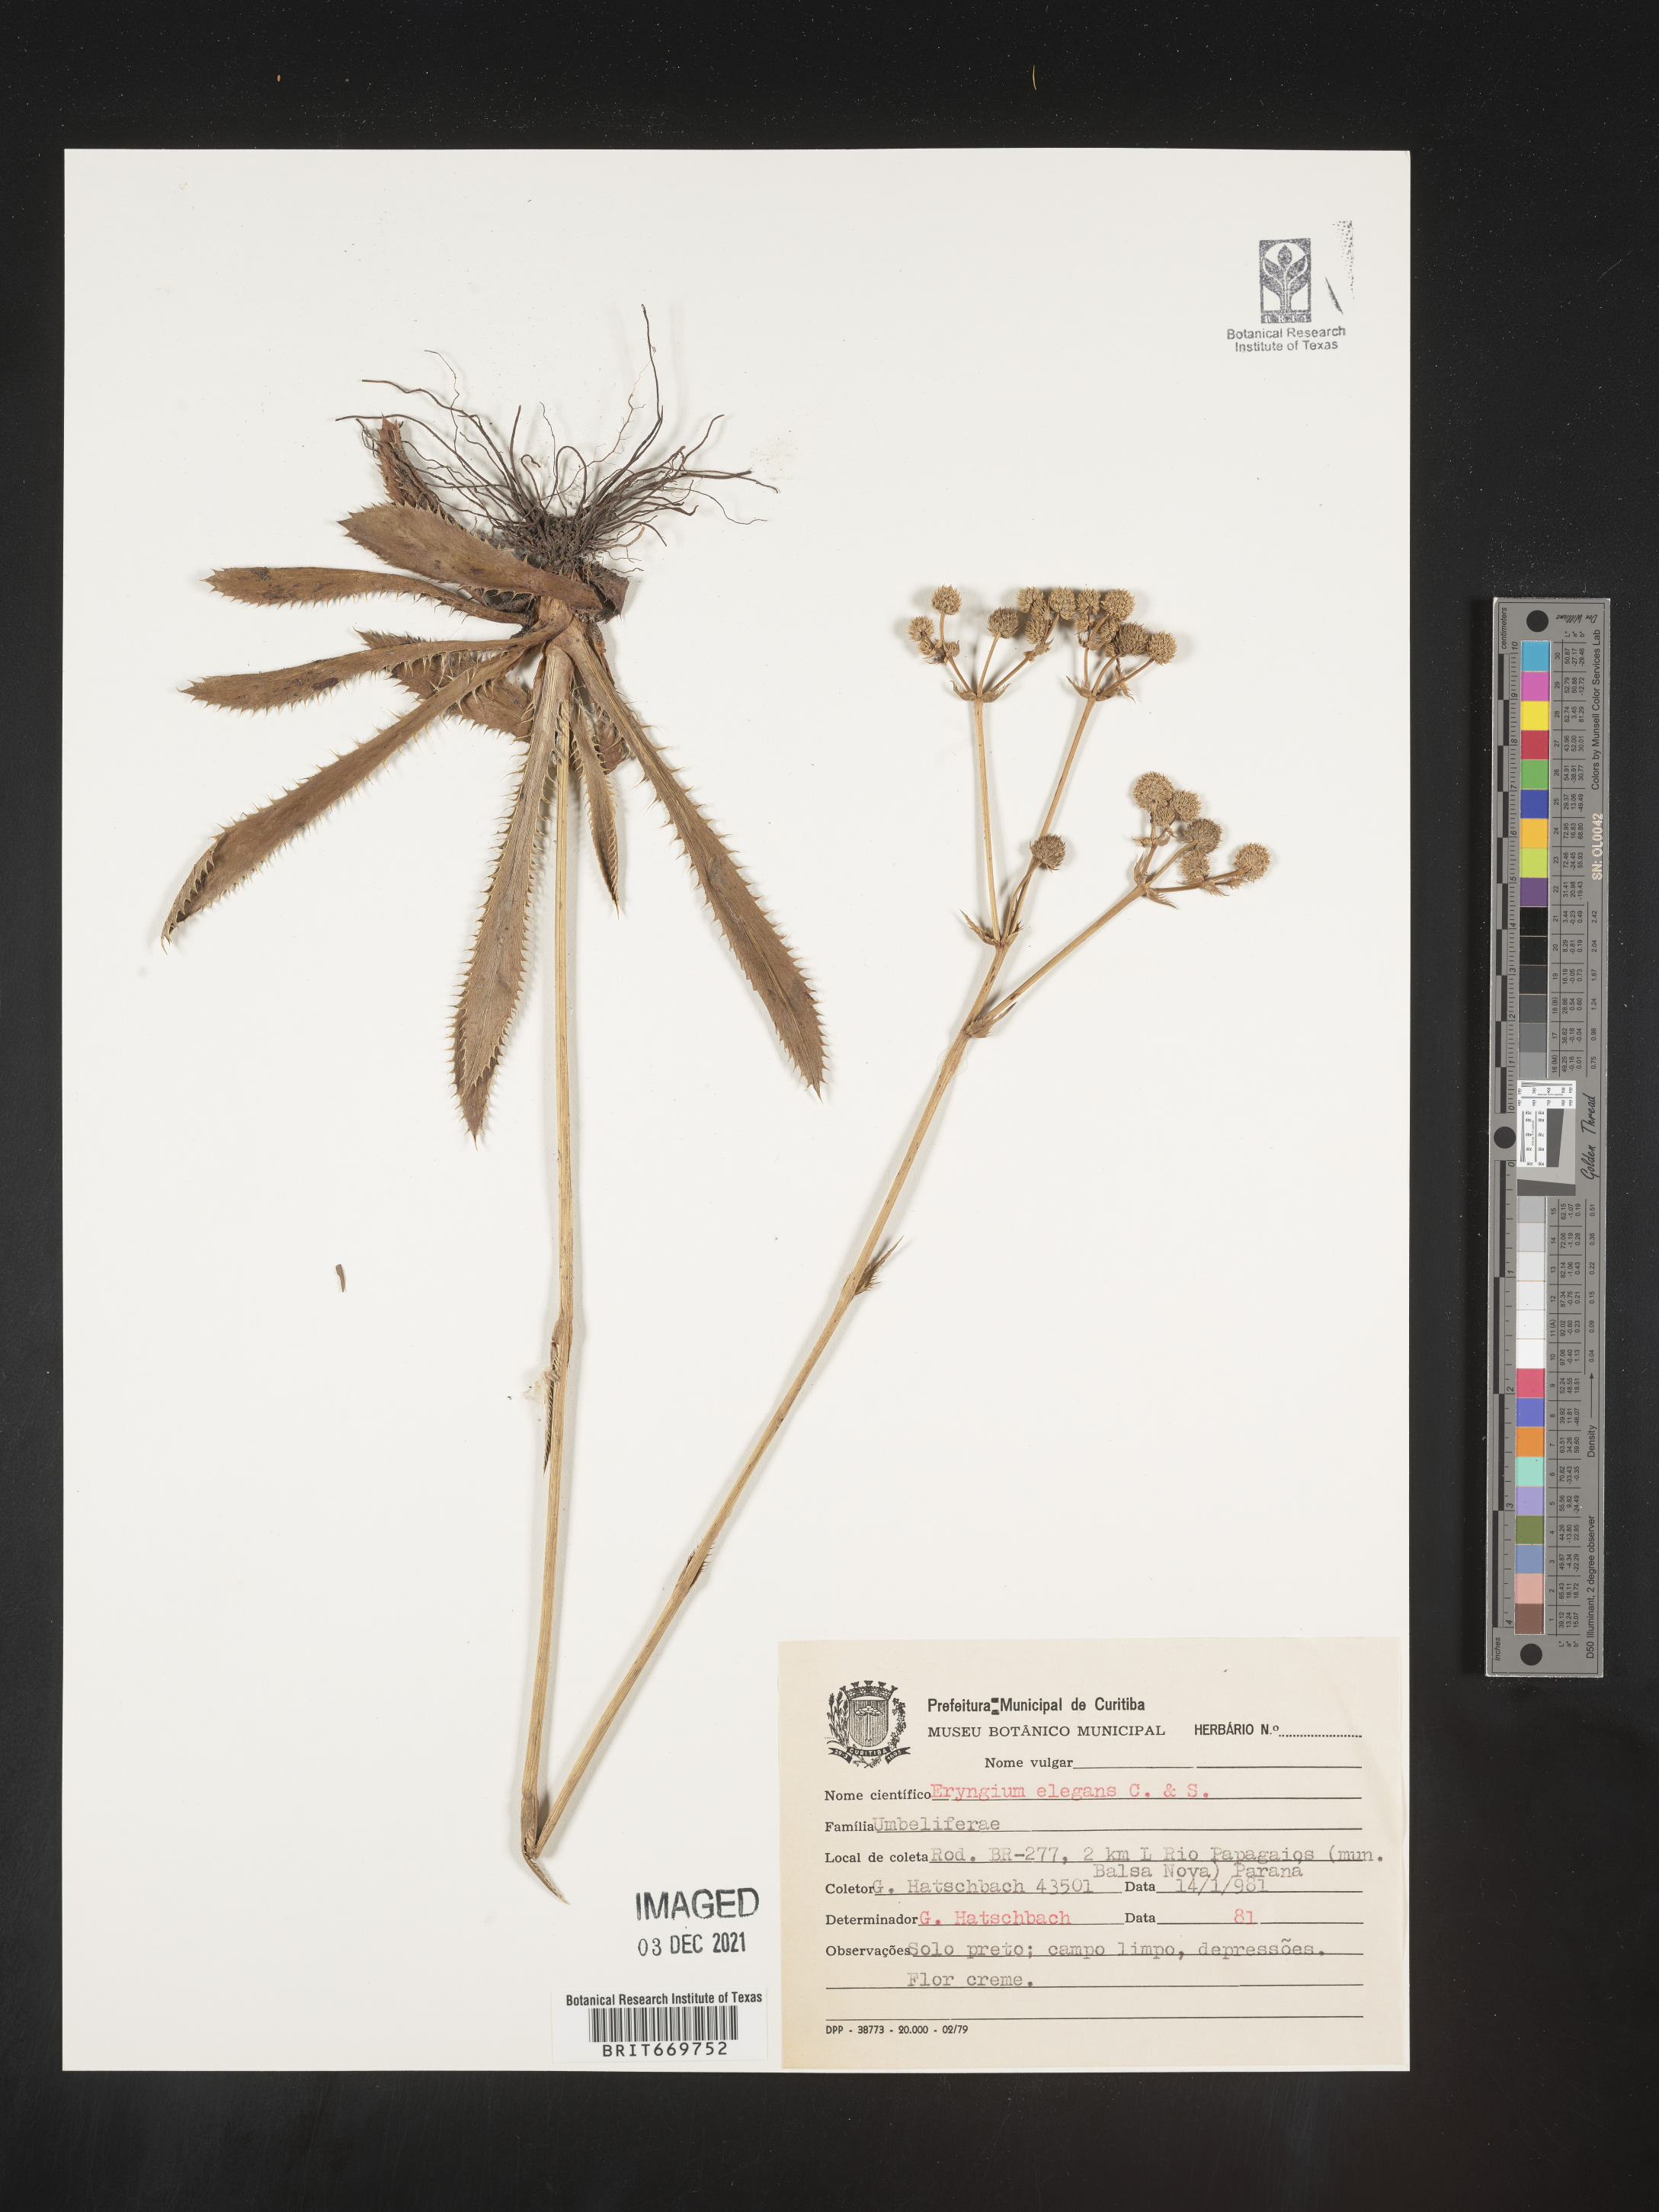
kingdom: Plantae
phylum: Tracheophyta
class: Magnoliopsida
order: Apiales
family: Apiaceae
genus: Eryngium
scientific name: Eryngium
